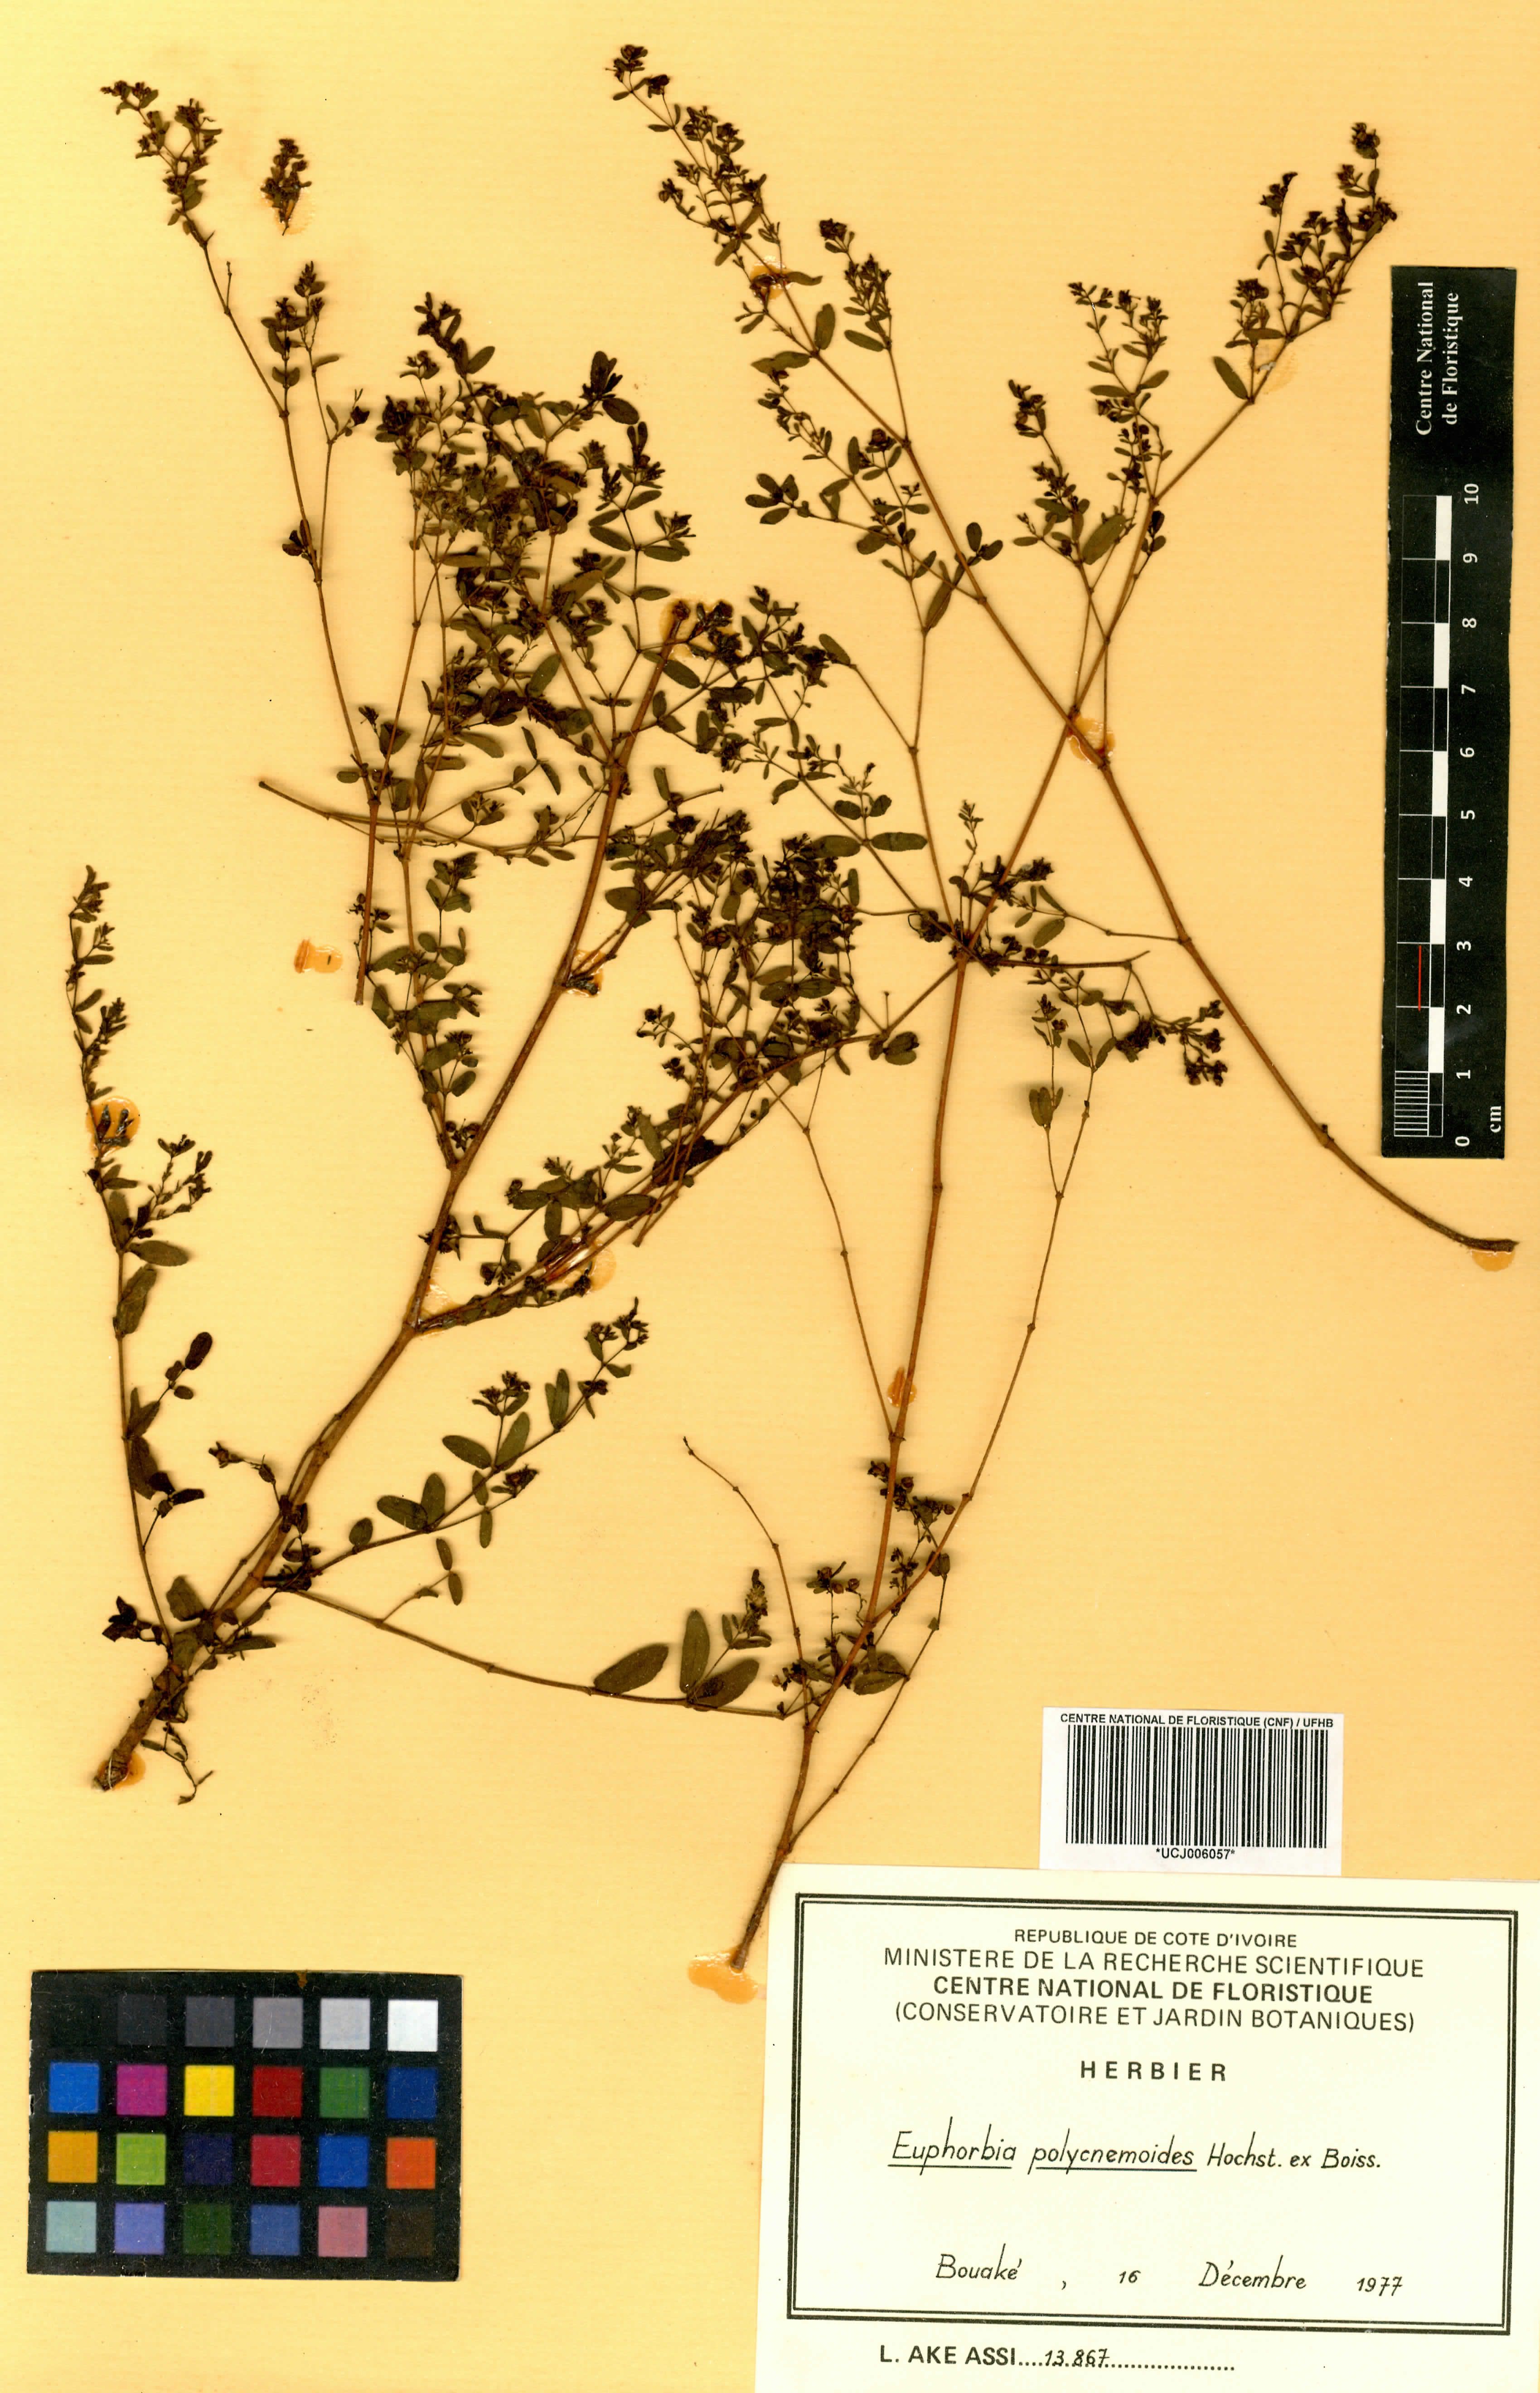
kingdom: Plantae
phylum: Tracheophyta
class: Magnoliopsida
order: Malpighiales
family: Euphorbiaceae
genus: Euphorbia
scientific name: Euphorbia polycnemoides
